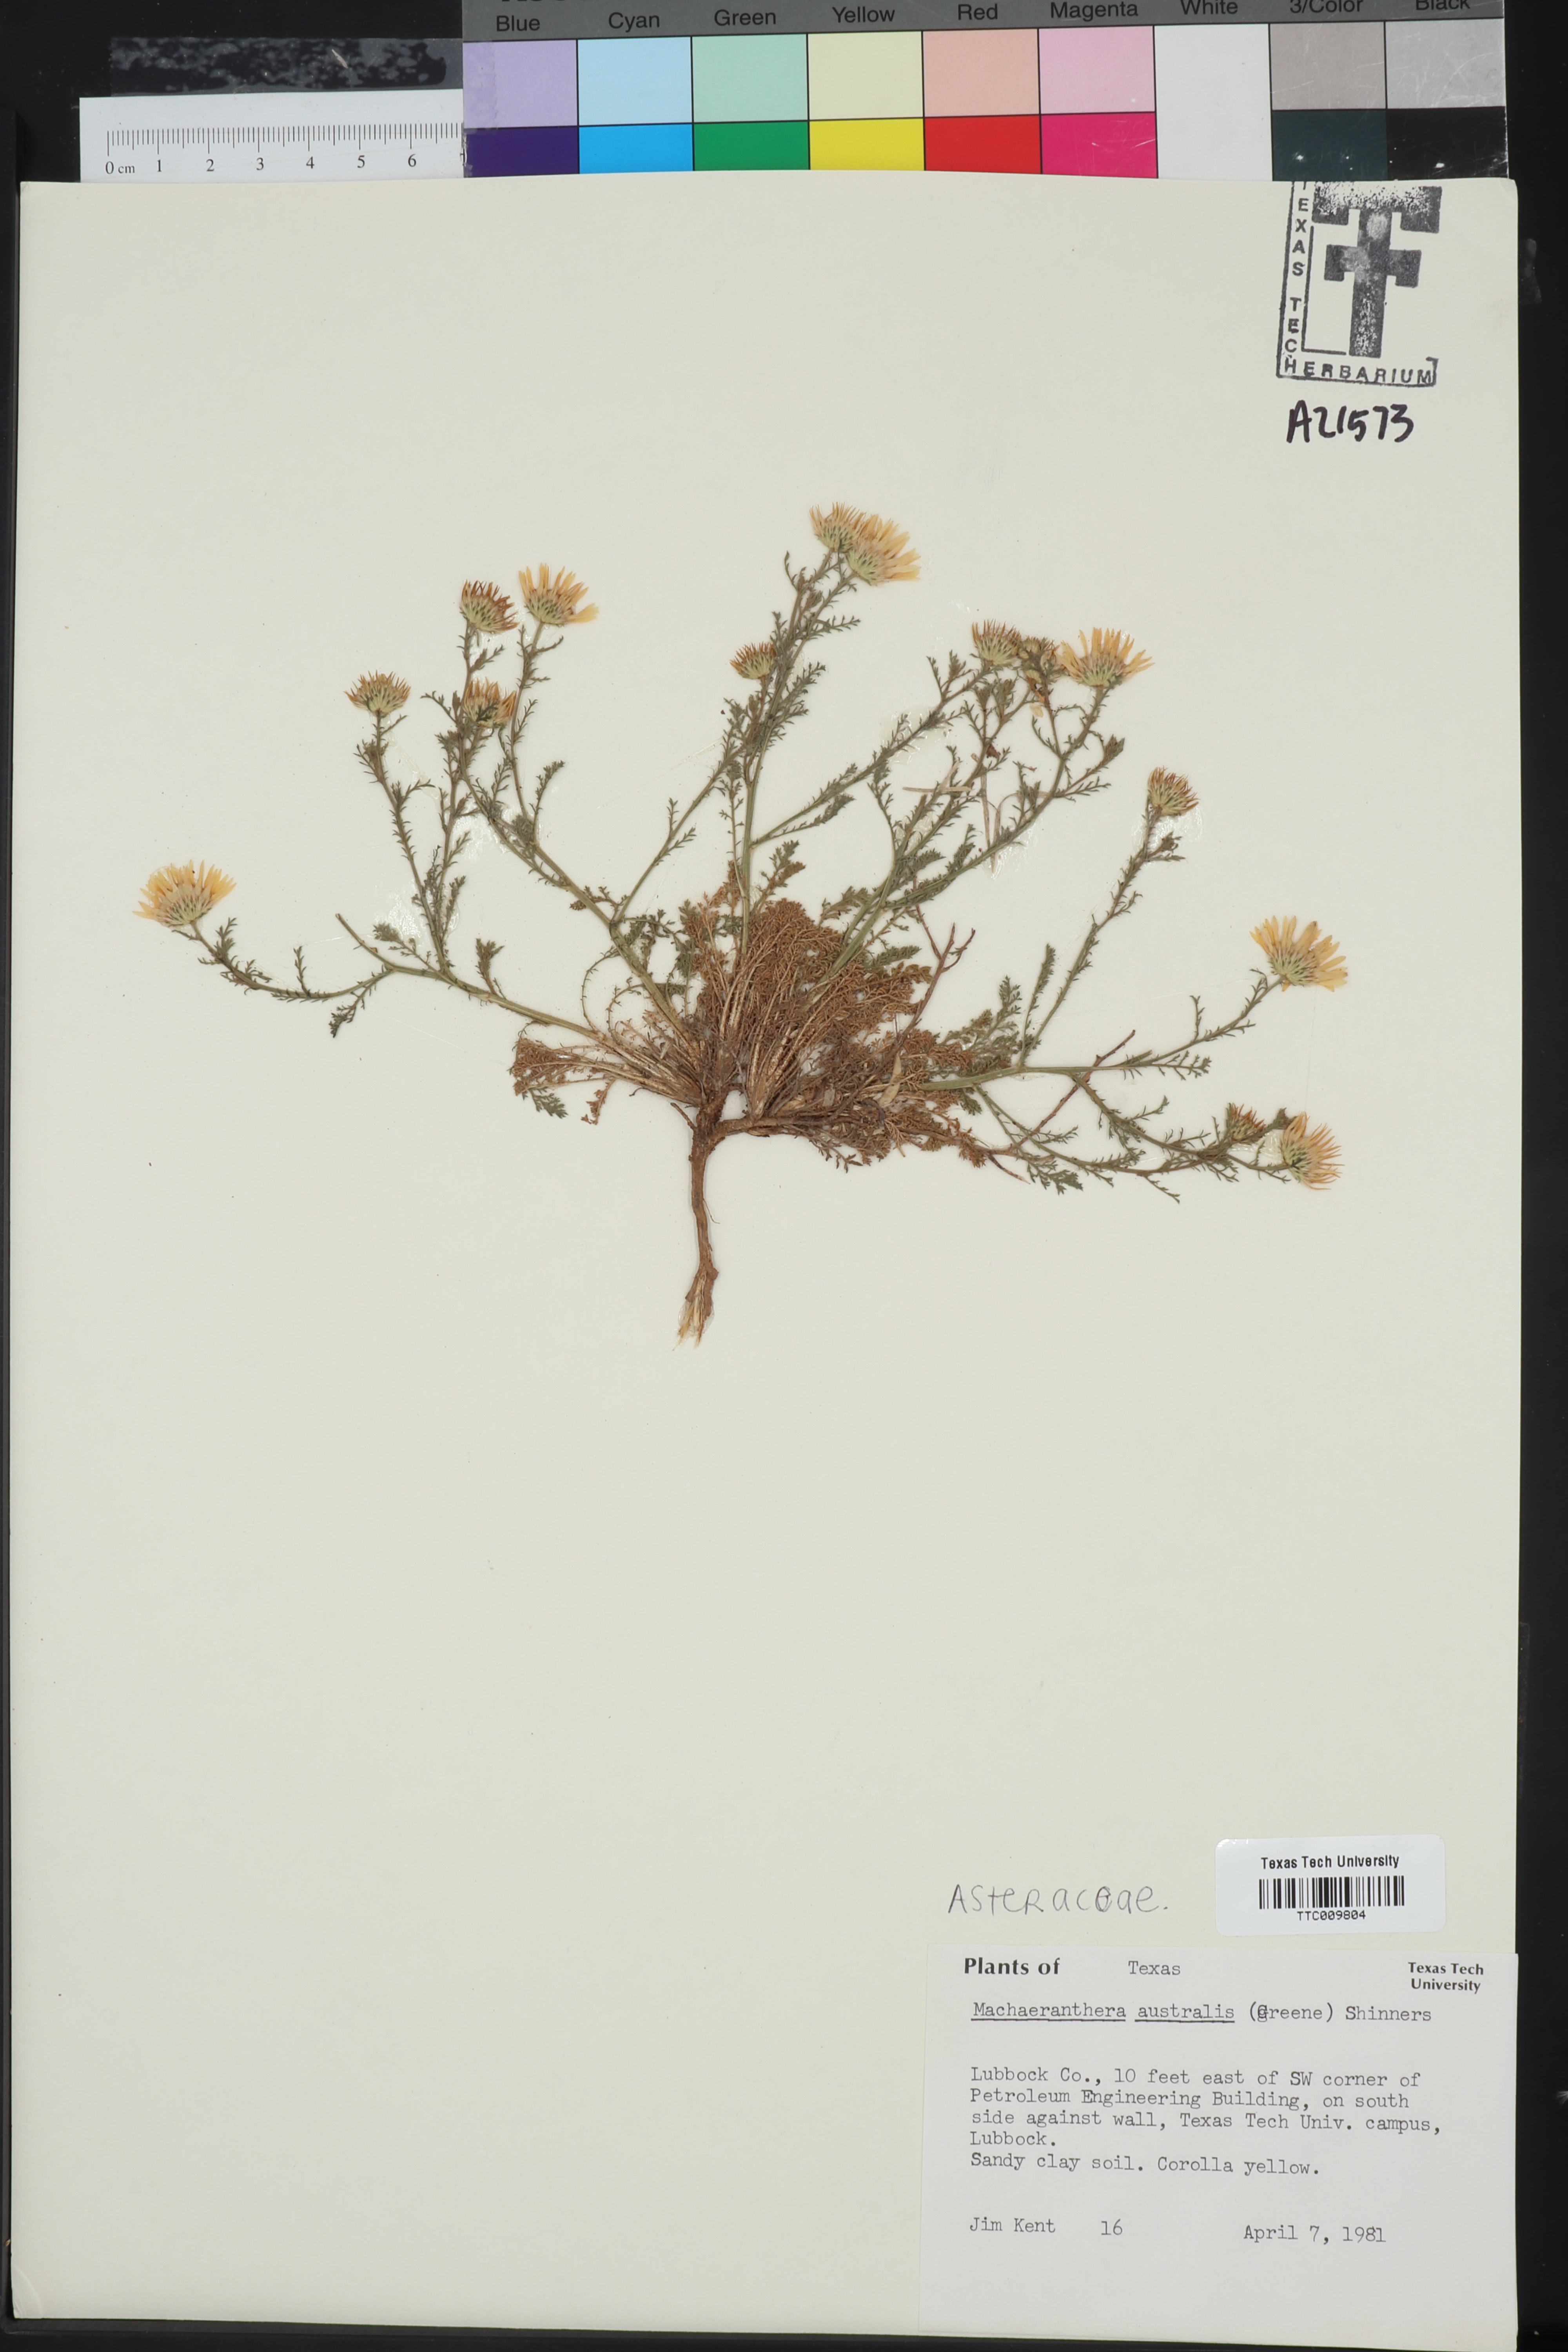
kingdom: Plantae
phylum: Tracheophyta
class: Magnoliopsida
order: Asterales
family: Asteraceae
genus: Xanthisma
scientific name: Xanthisma spinulosum
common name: Spiny goldenweed
